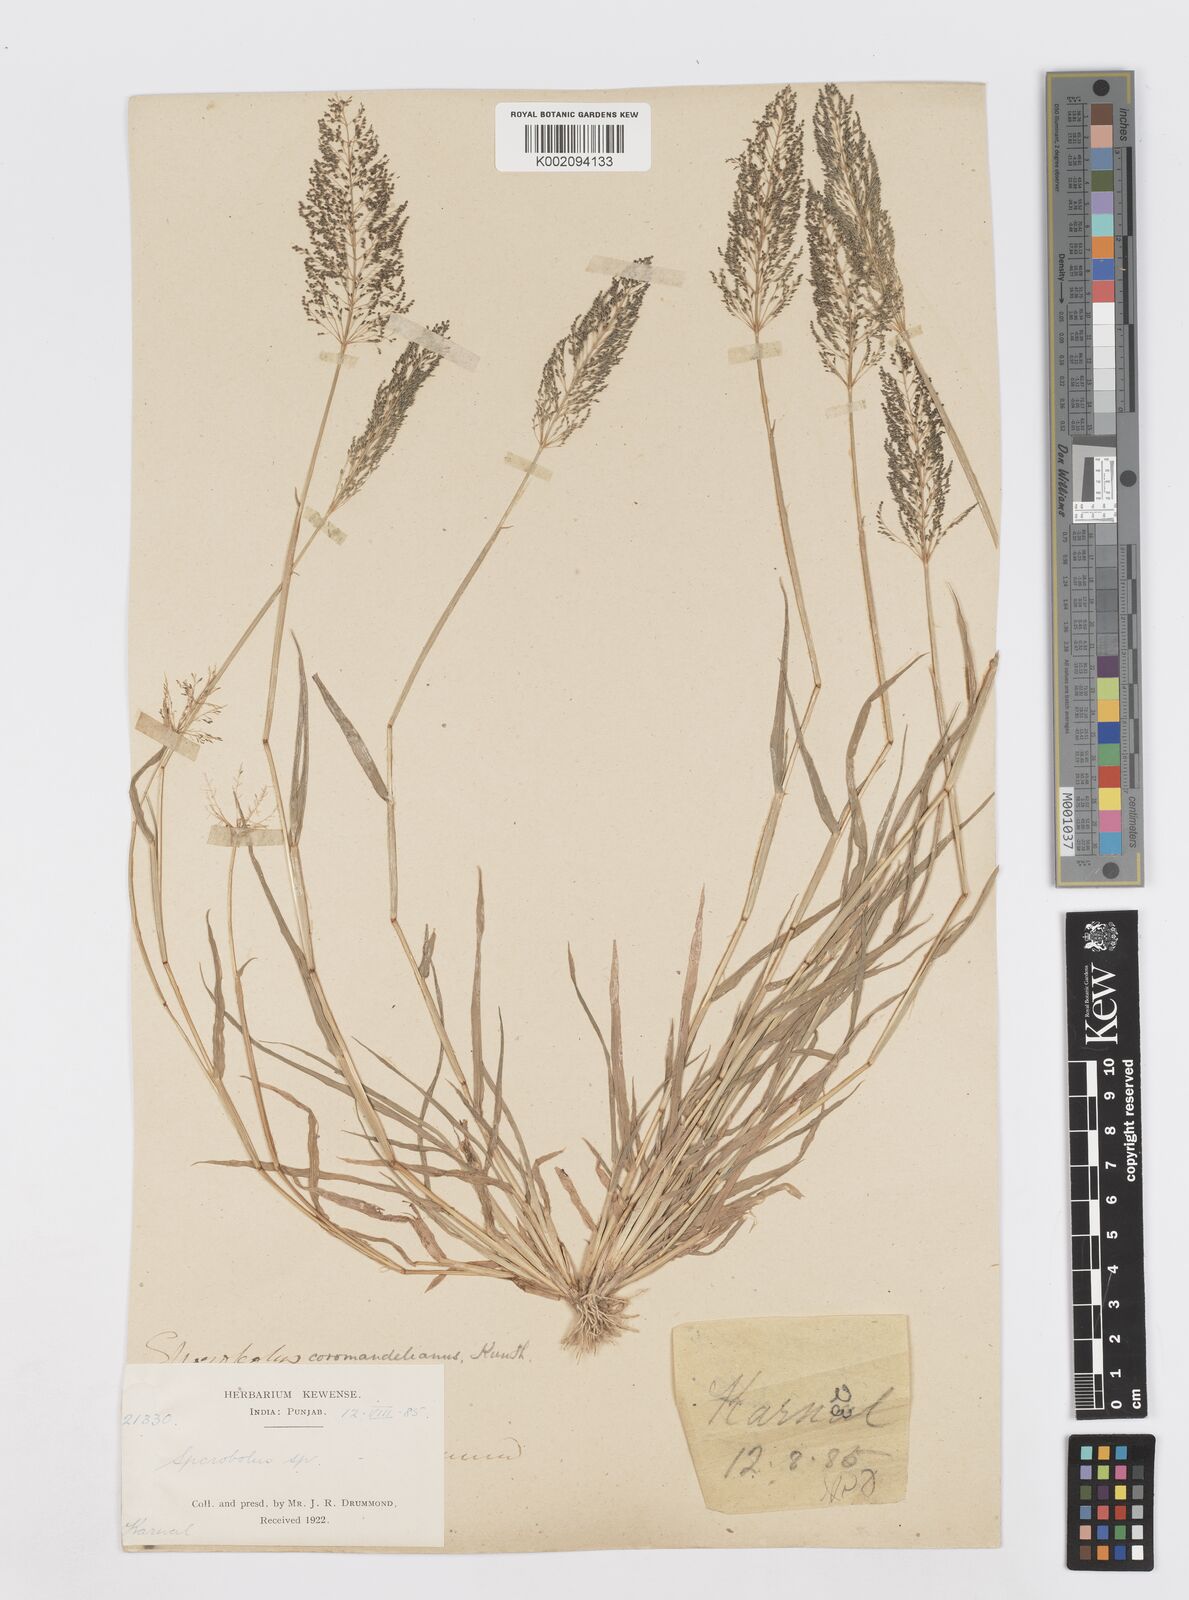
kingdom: Plantae
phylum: Tracheophyta
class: Liliopsida
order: Poales
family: Poaceae
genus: Sporobolus
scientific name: Sporobolus coromandelianus
